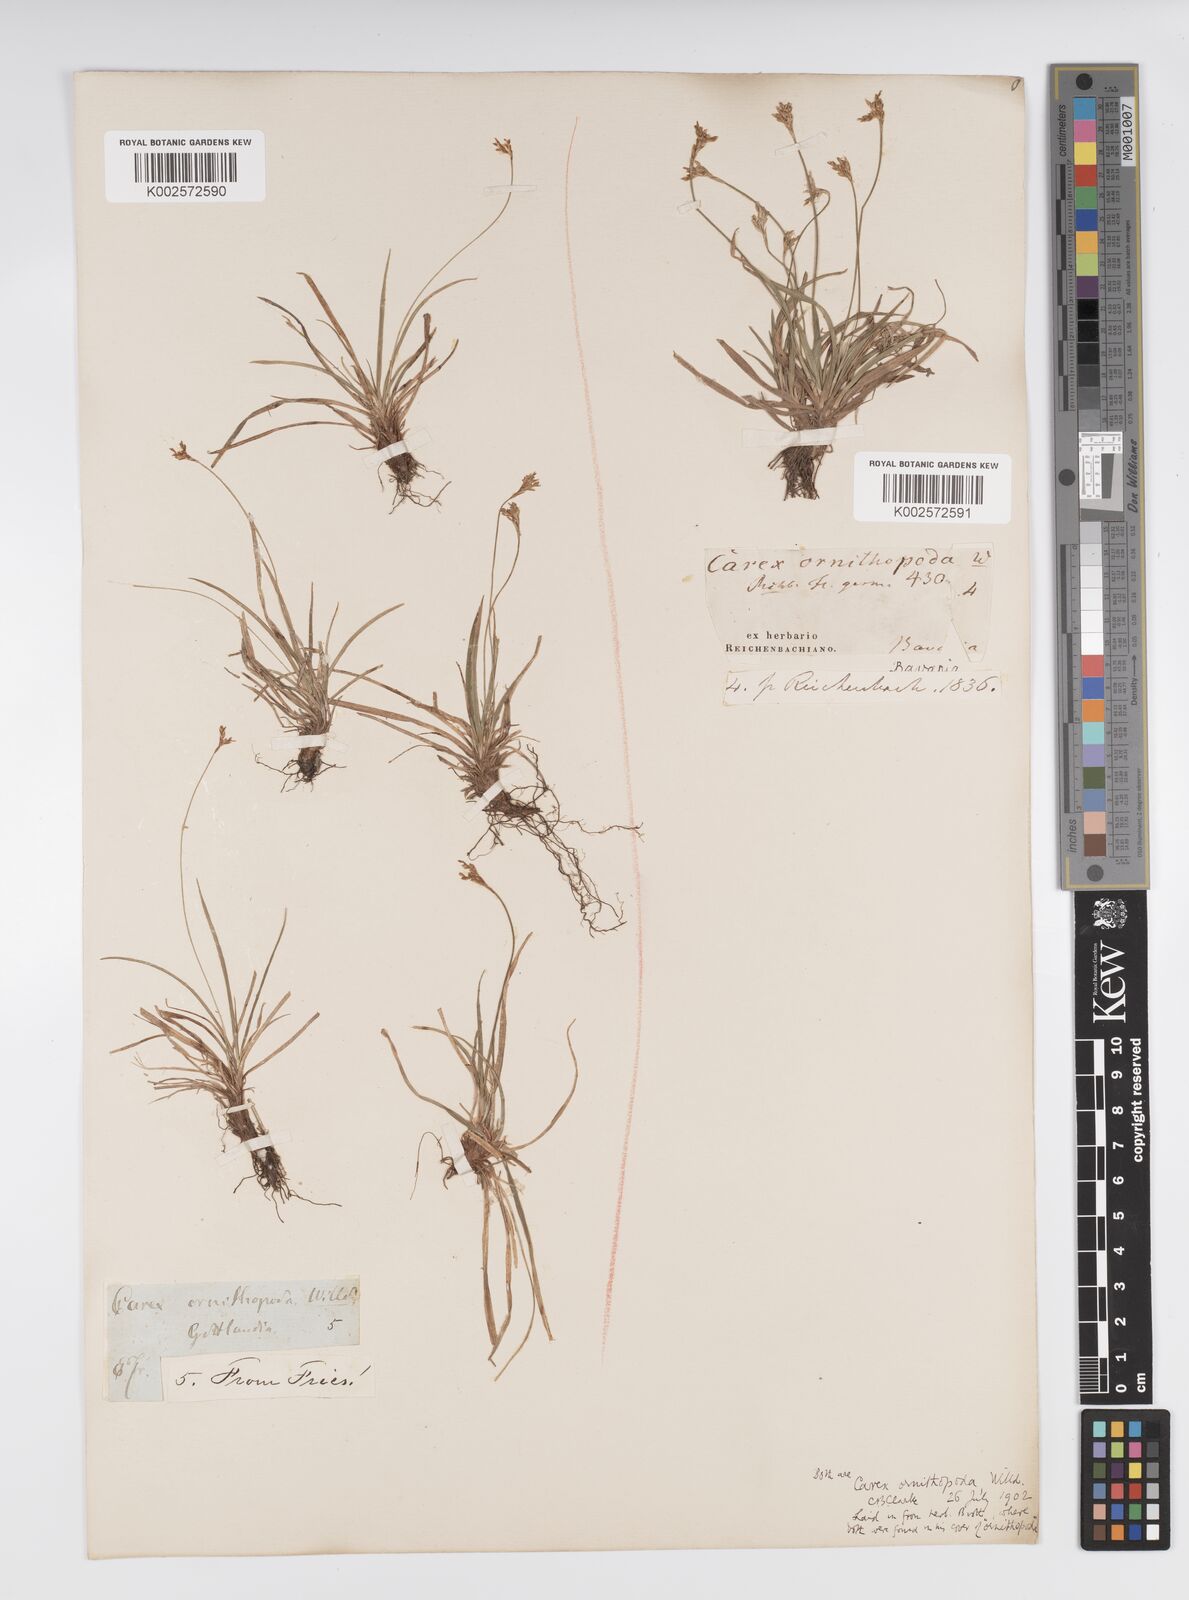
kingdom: Plantae
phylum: Tracheophyta
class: Liliopsida
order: Poales
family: Cyperaceae
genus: Carex
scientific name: Carex ornithopoda
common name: Bird's-foot sedge
